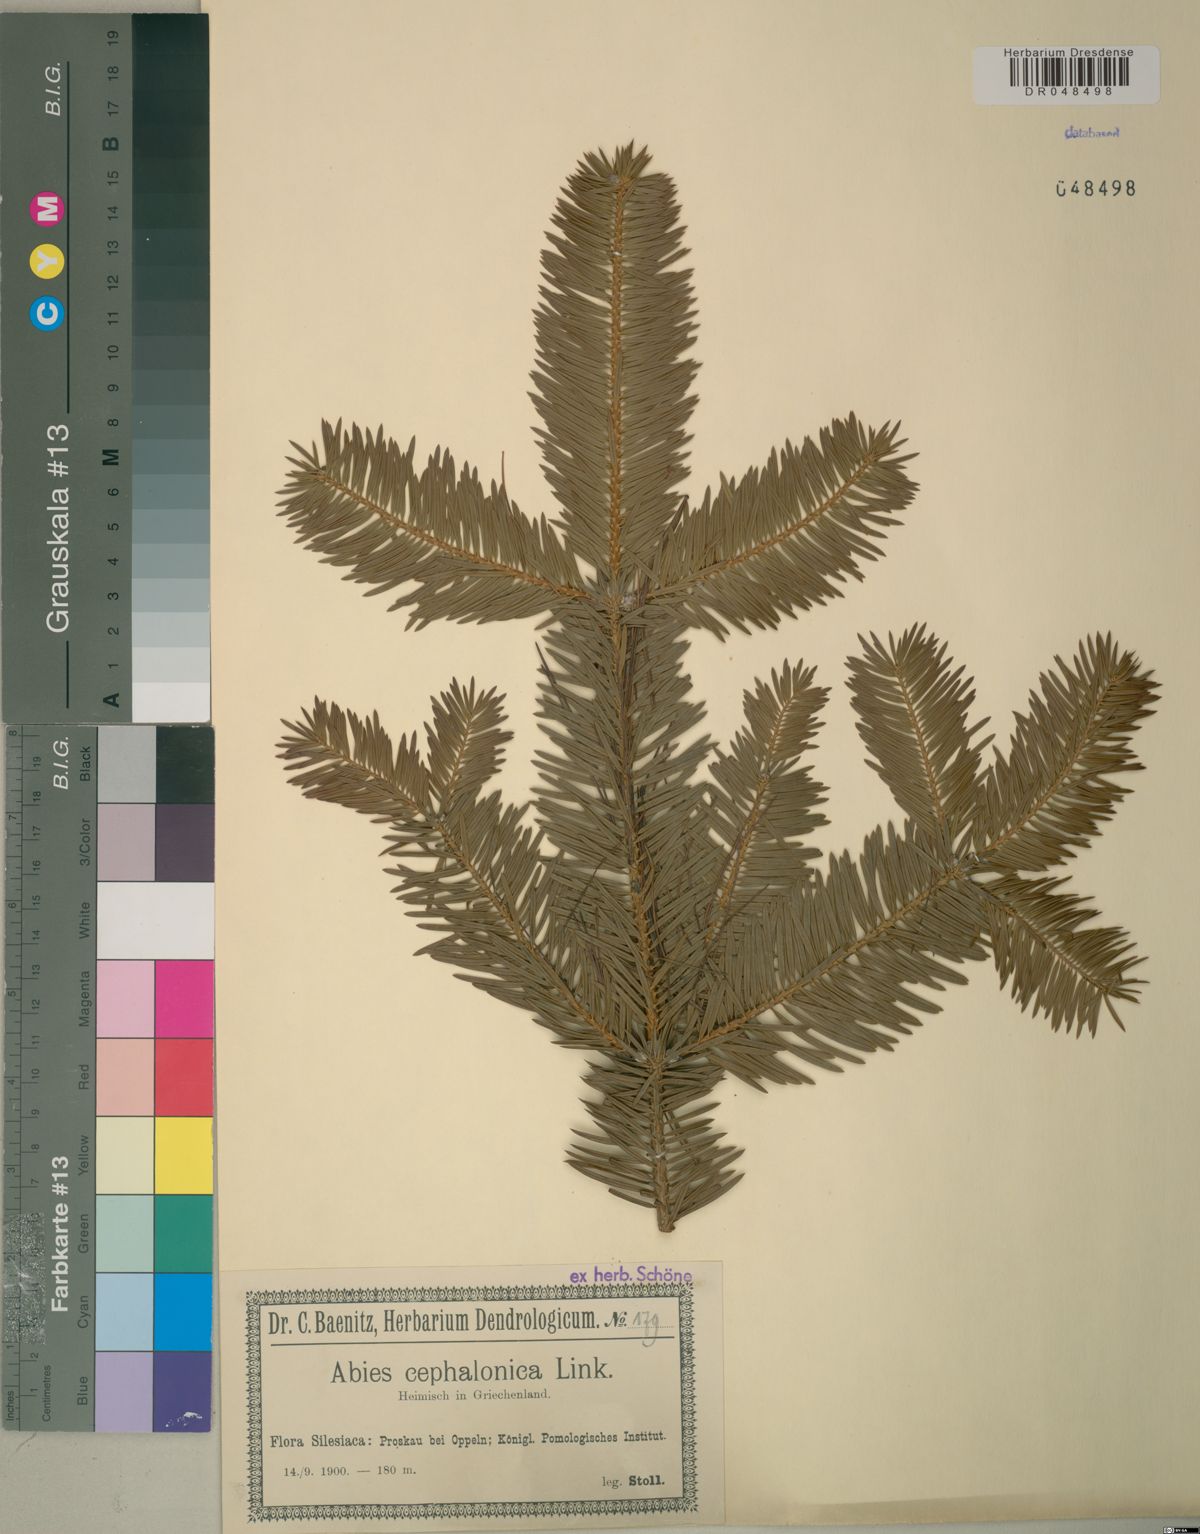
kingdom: Plantae
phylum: Tracheophyta
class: Pinopsida
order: Pinales
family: Pinaceae
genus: Abies
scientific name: Abies cephalonica
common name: Greek fir
